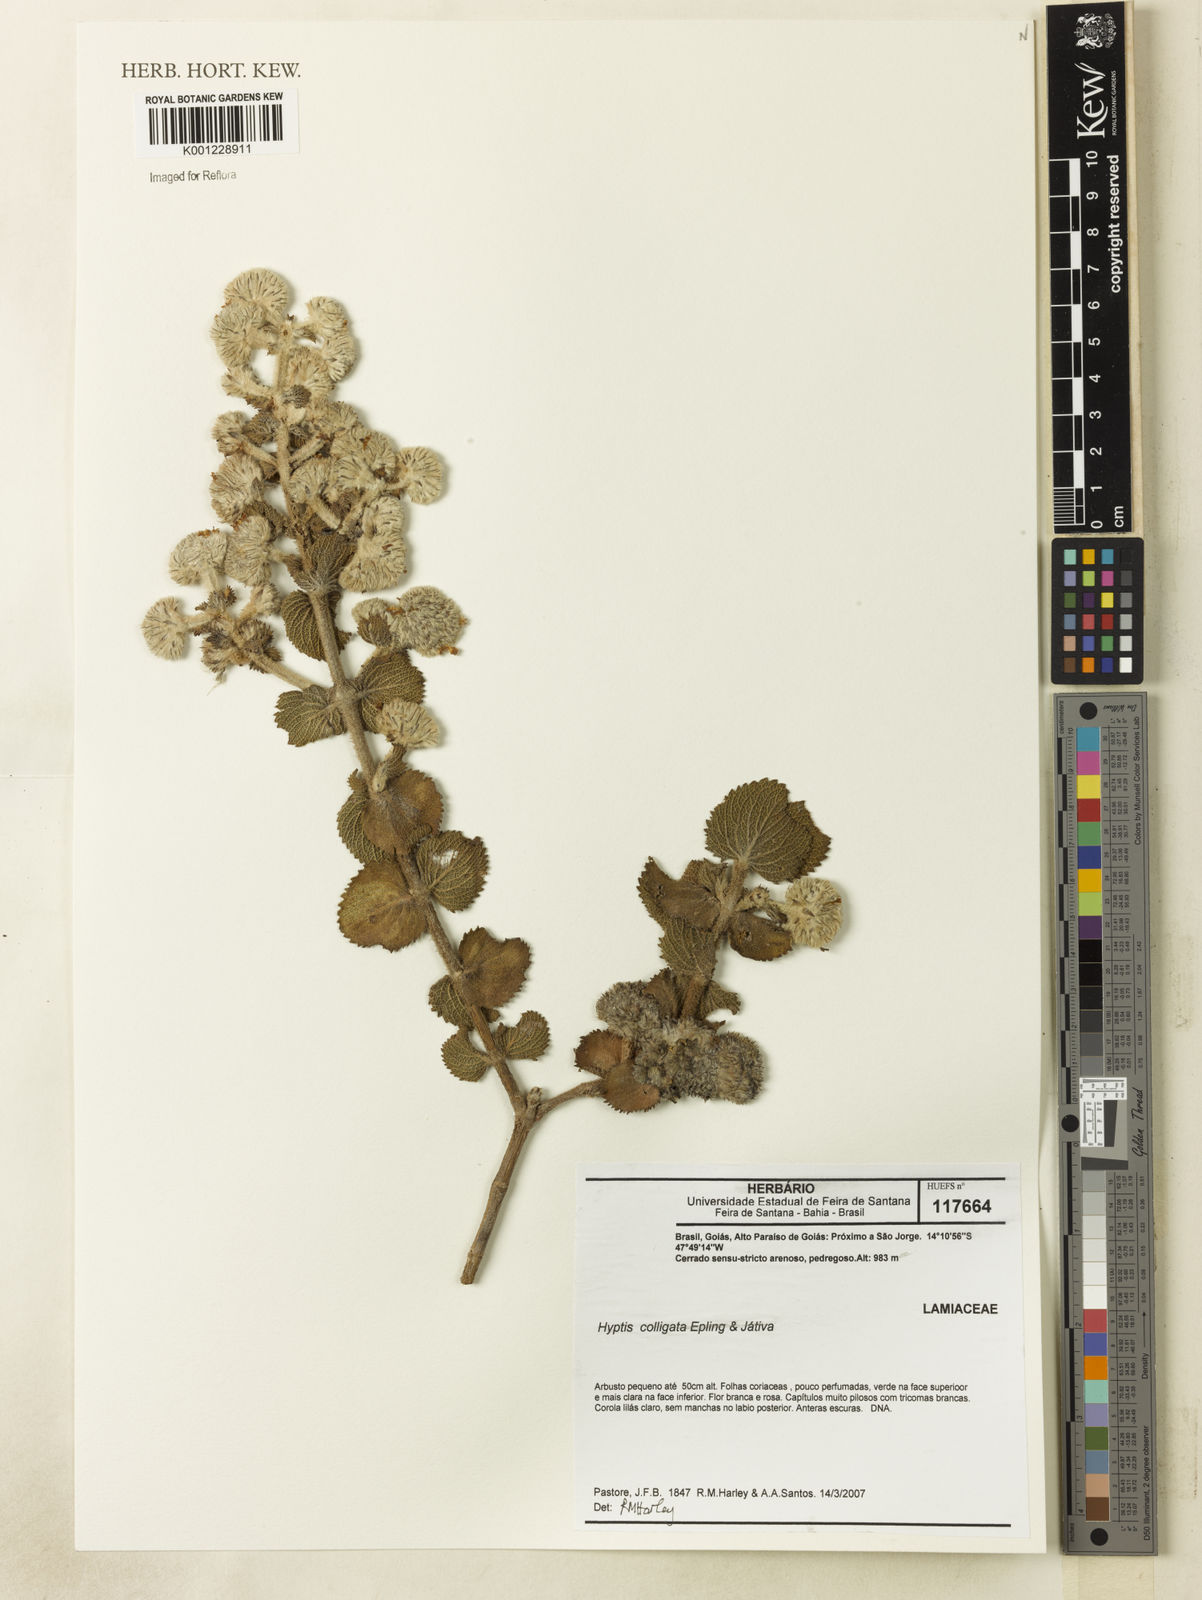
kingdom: Plantae
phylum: Tracheophyta
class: Magnoliopsida
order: Lamiales
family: Lamiaceae
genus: Hyptis
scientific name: Hyptis
